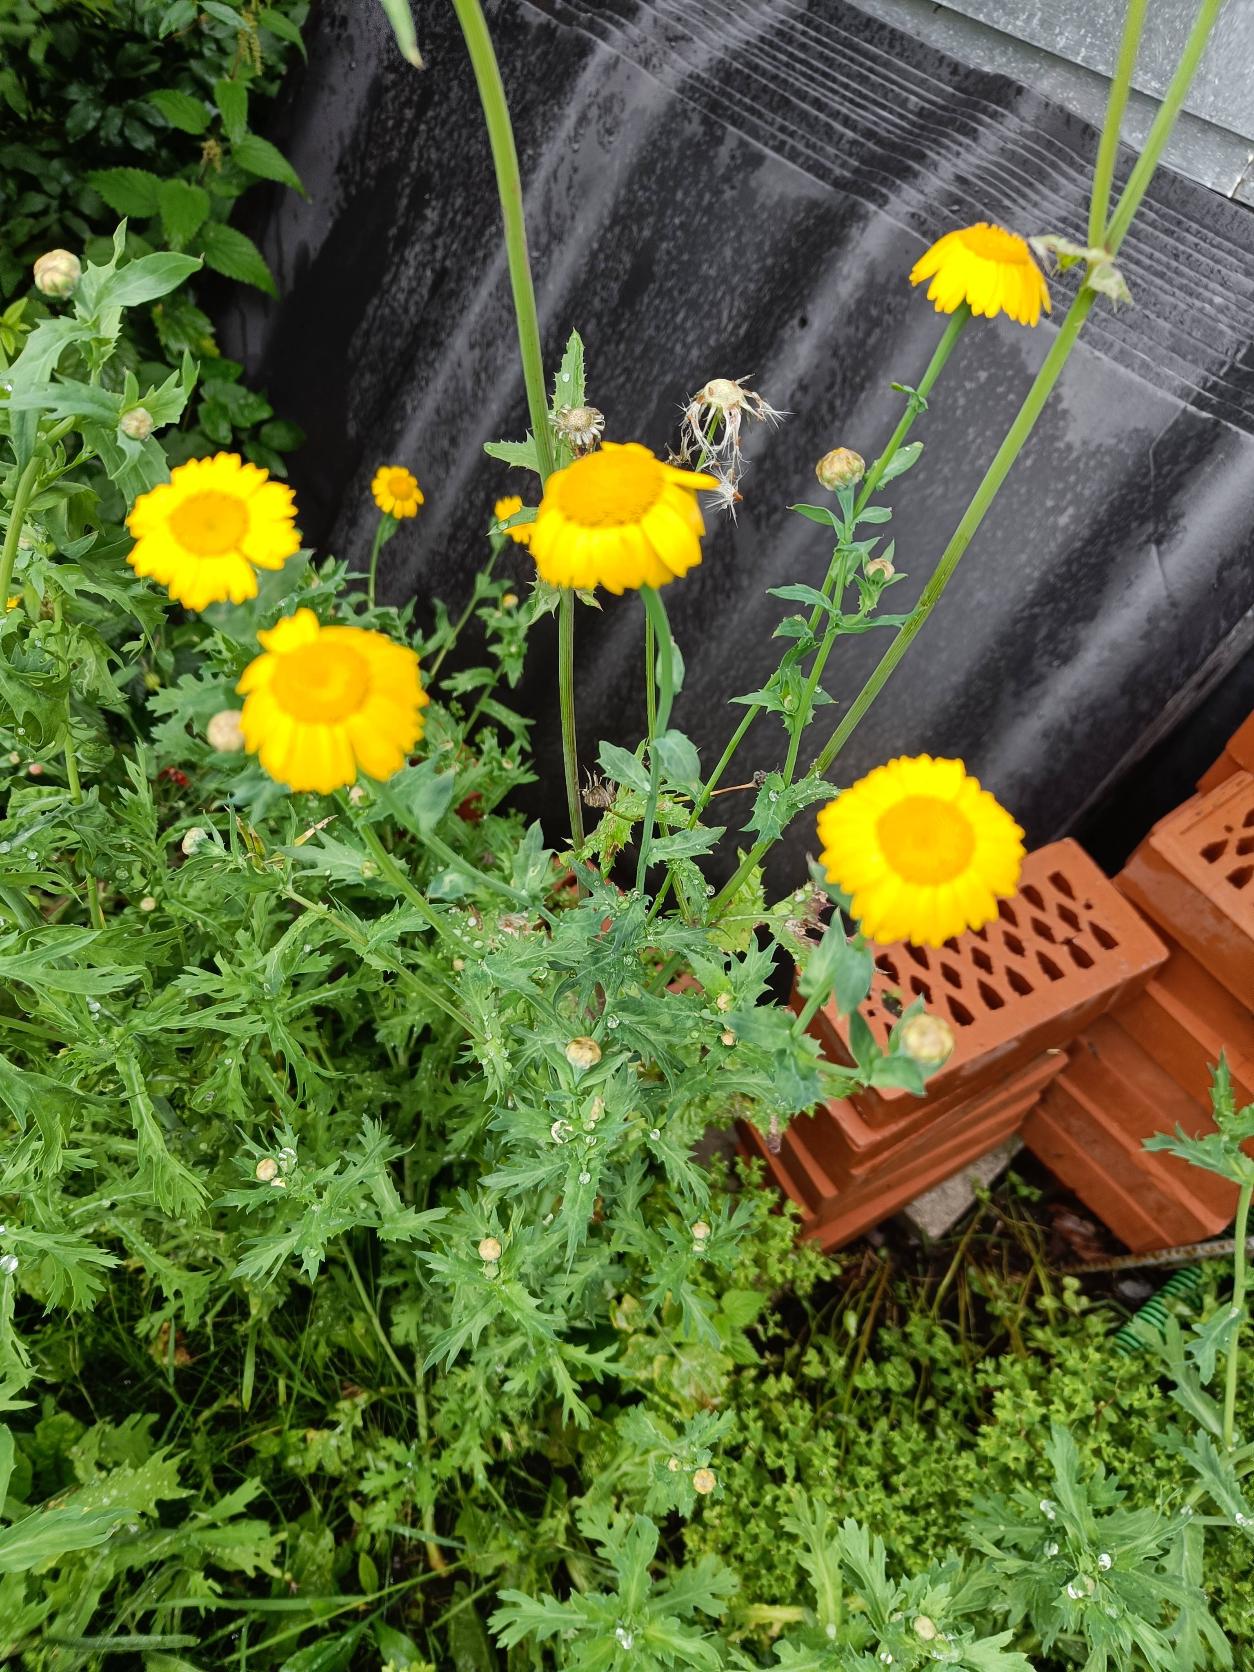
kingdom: Plantae
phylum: Tracheophyta
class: Magnoliopsida
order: Asterales
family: Asteraceae
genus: Glebionis
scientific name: Glebionis segetum
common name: Gul okseøje
